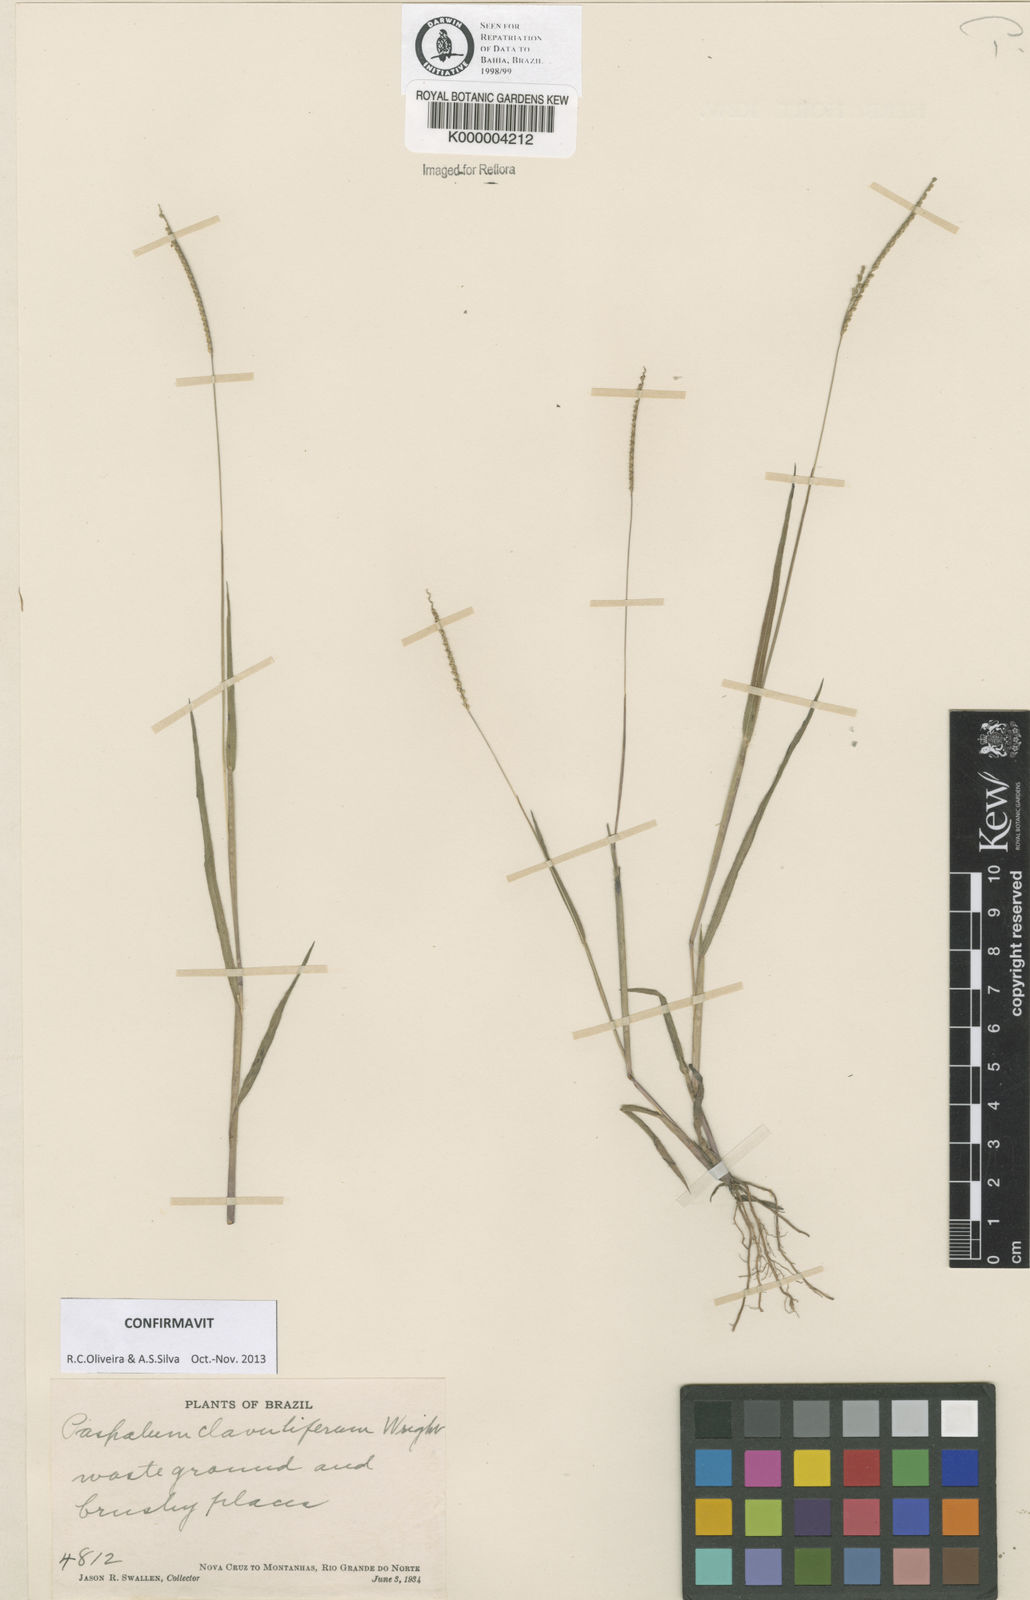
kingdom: Plantae
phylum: Tracheophyta
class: Liliopsida
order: Poales
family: Poaceae
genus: Paspalum
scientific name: Paspalum clavuliferum
